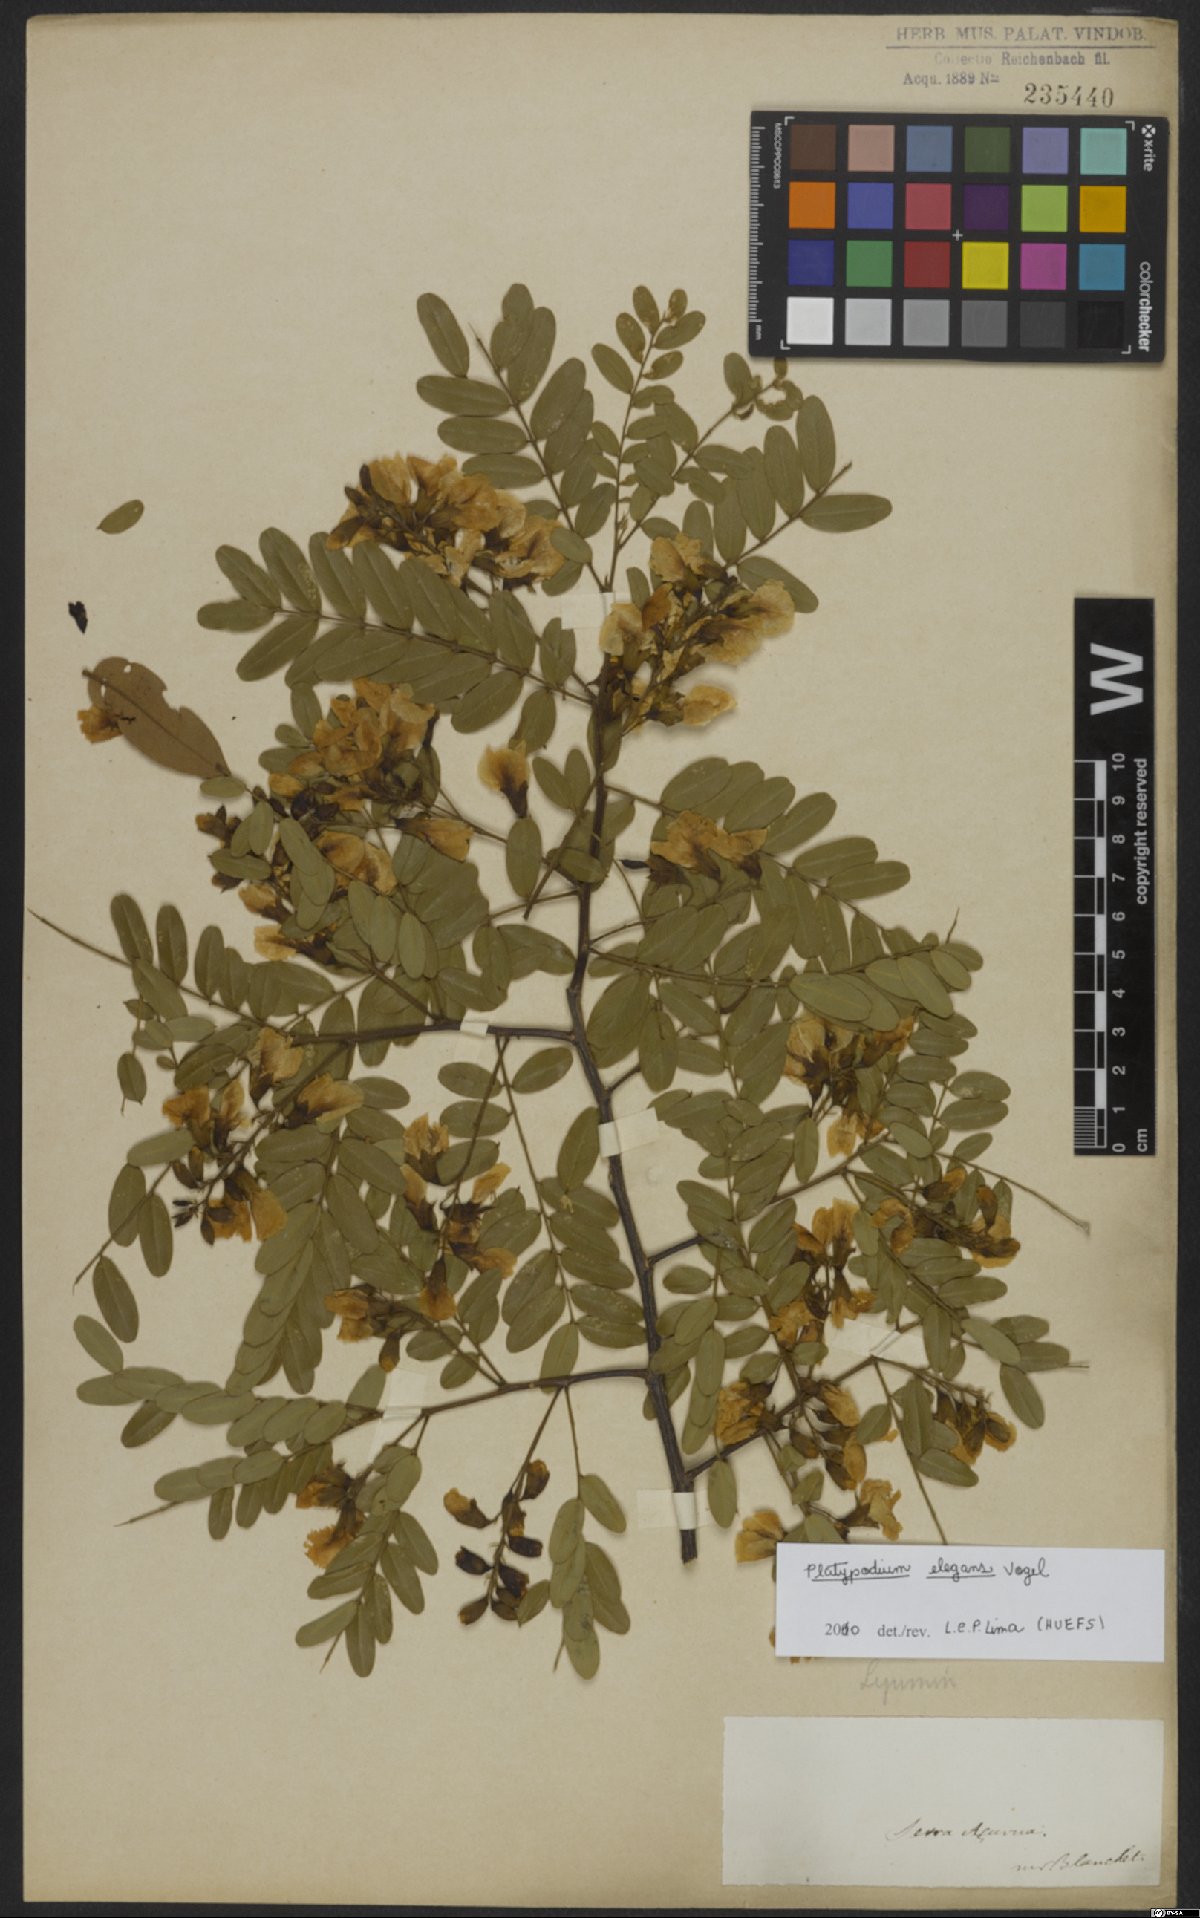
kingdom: Plantae
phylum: Tracheophyta
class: Magnoliopsida
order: Fabales
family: Fabaceae
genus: Platypodium
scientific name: Platypodium elegans
